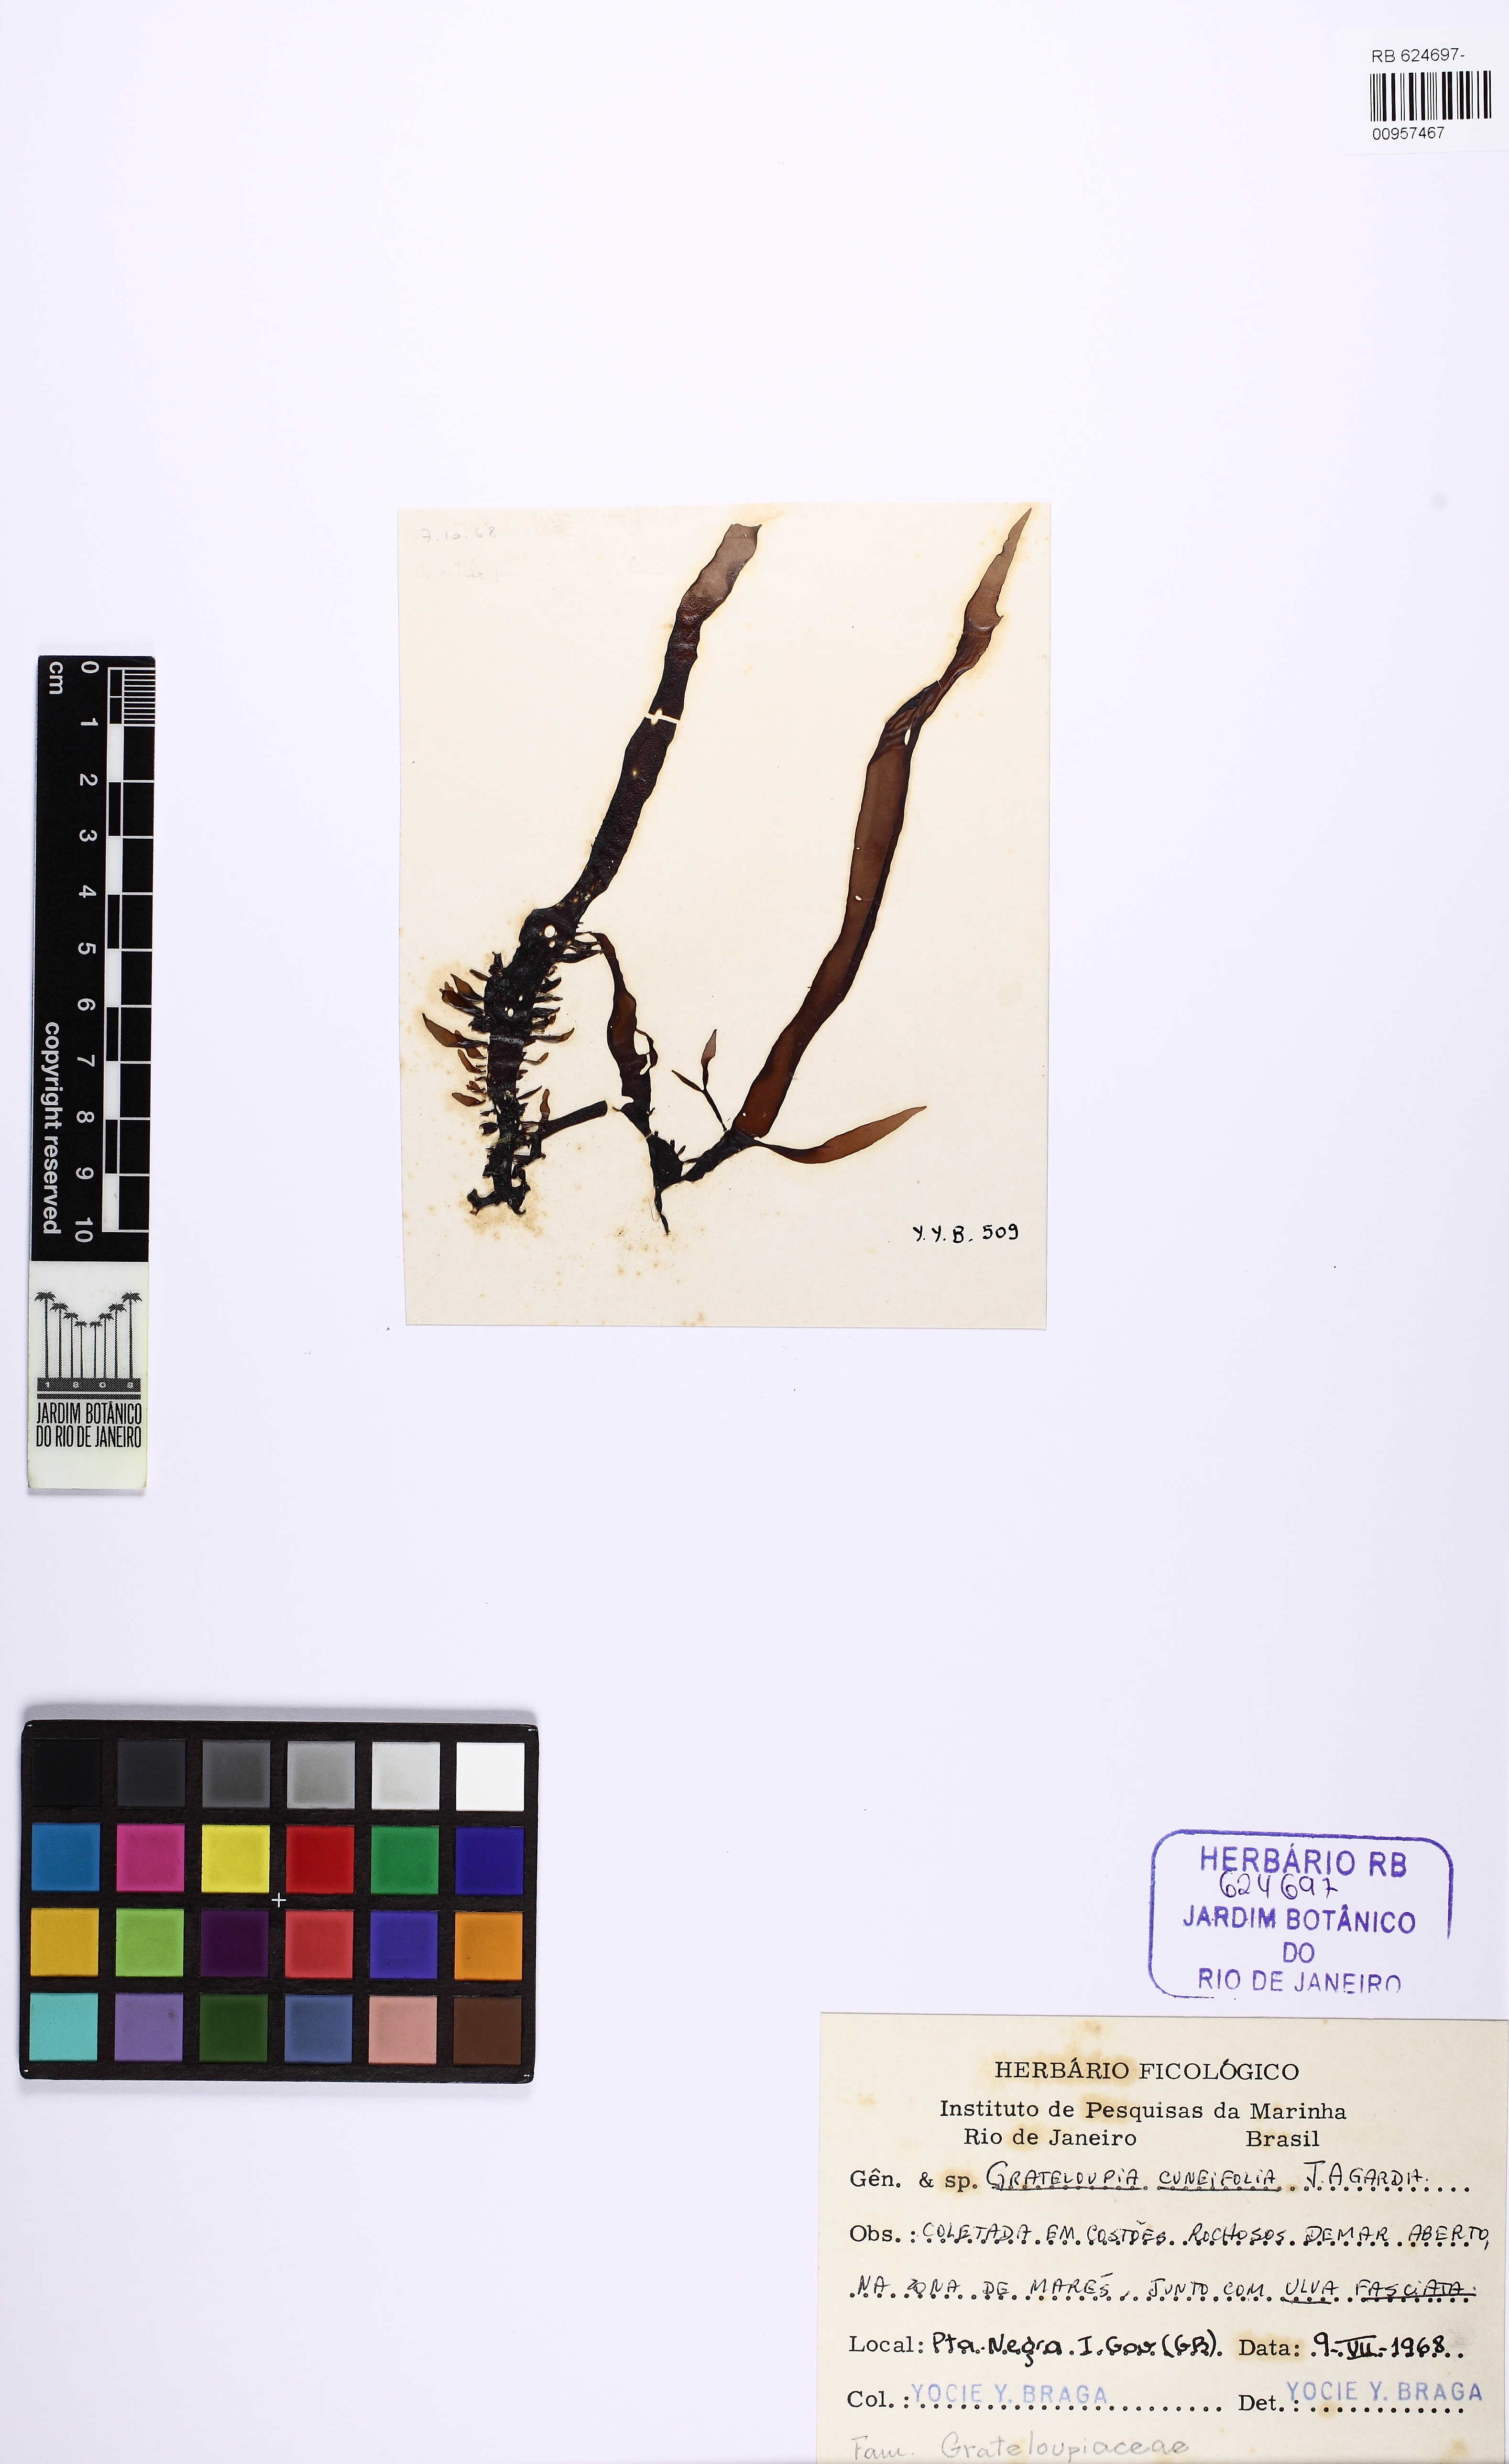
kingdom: Plantae
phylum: Rhodophyta
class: Florideophyceae
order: Halymeniales
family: Halymeniaceae
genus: Grateloupia
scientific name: Grateloupia cuneifolia
